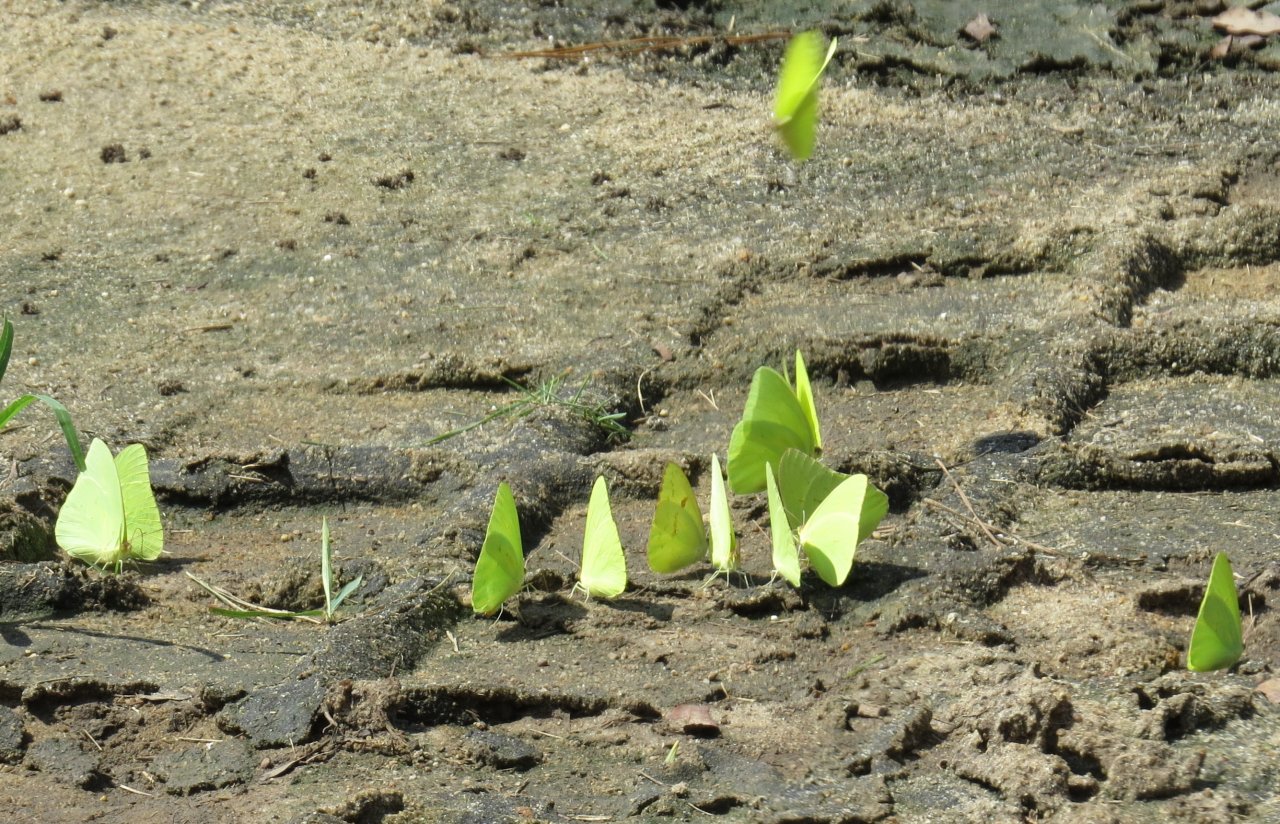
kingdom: Animalia
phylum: Arthropoda
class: Insecta
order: Lepidoptera
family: Pieridae
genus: Phoebis
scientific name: Phoebis sennae
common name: Cloudless Sulphur
